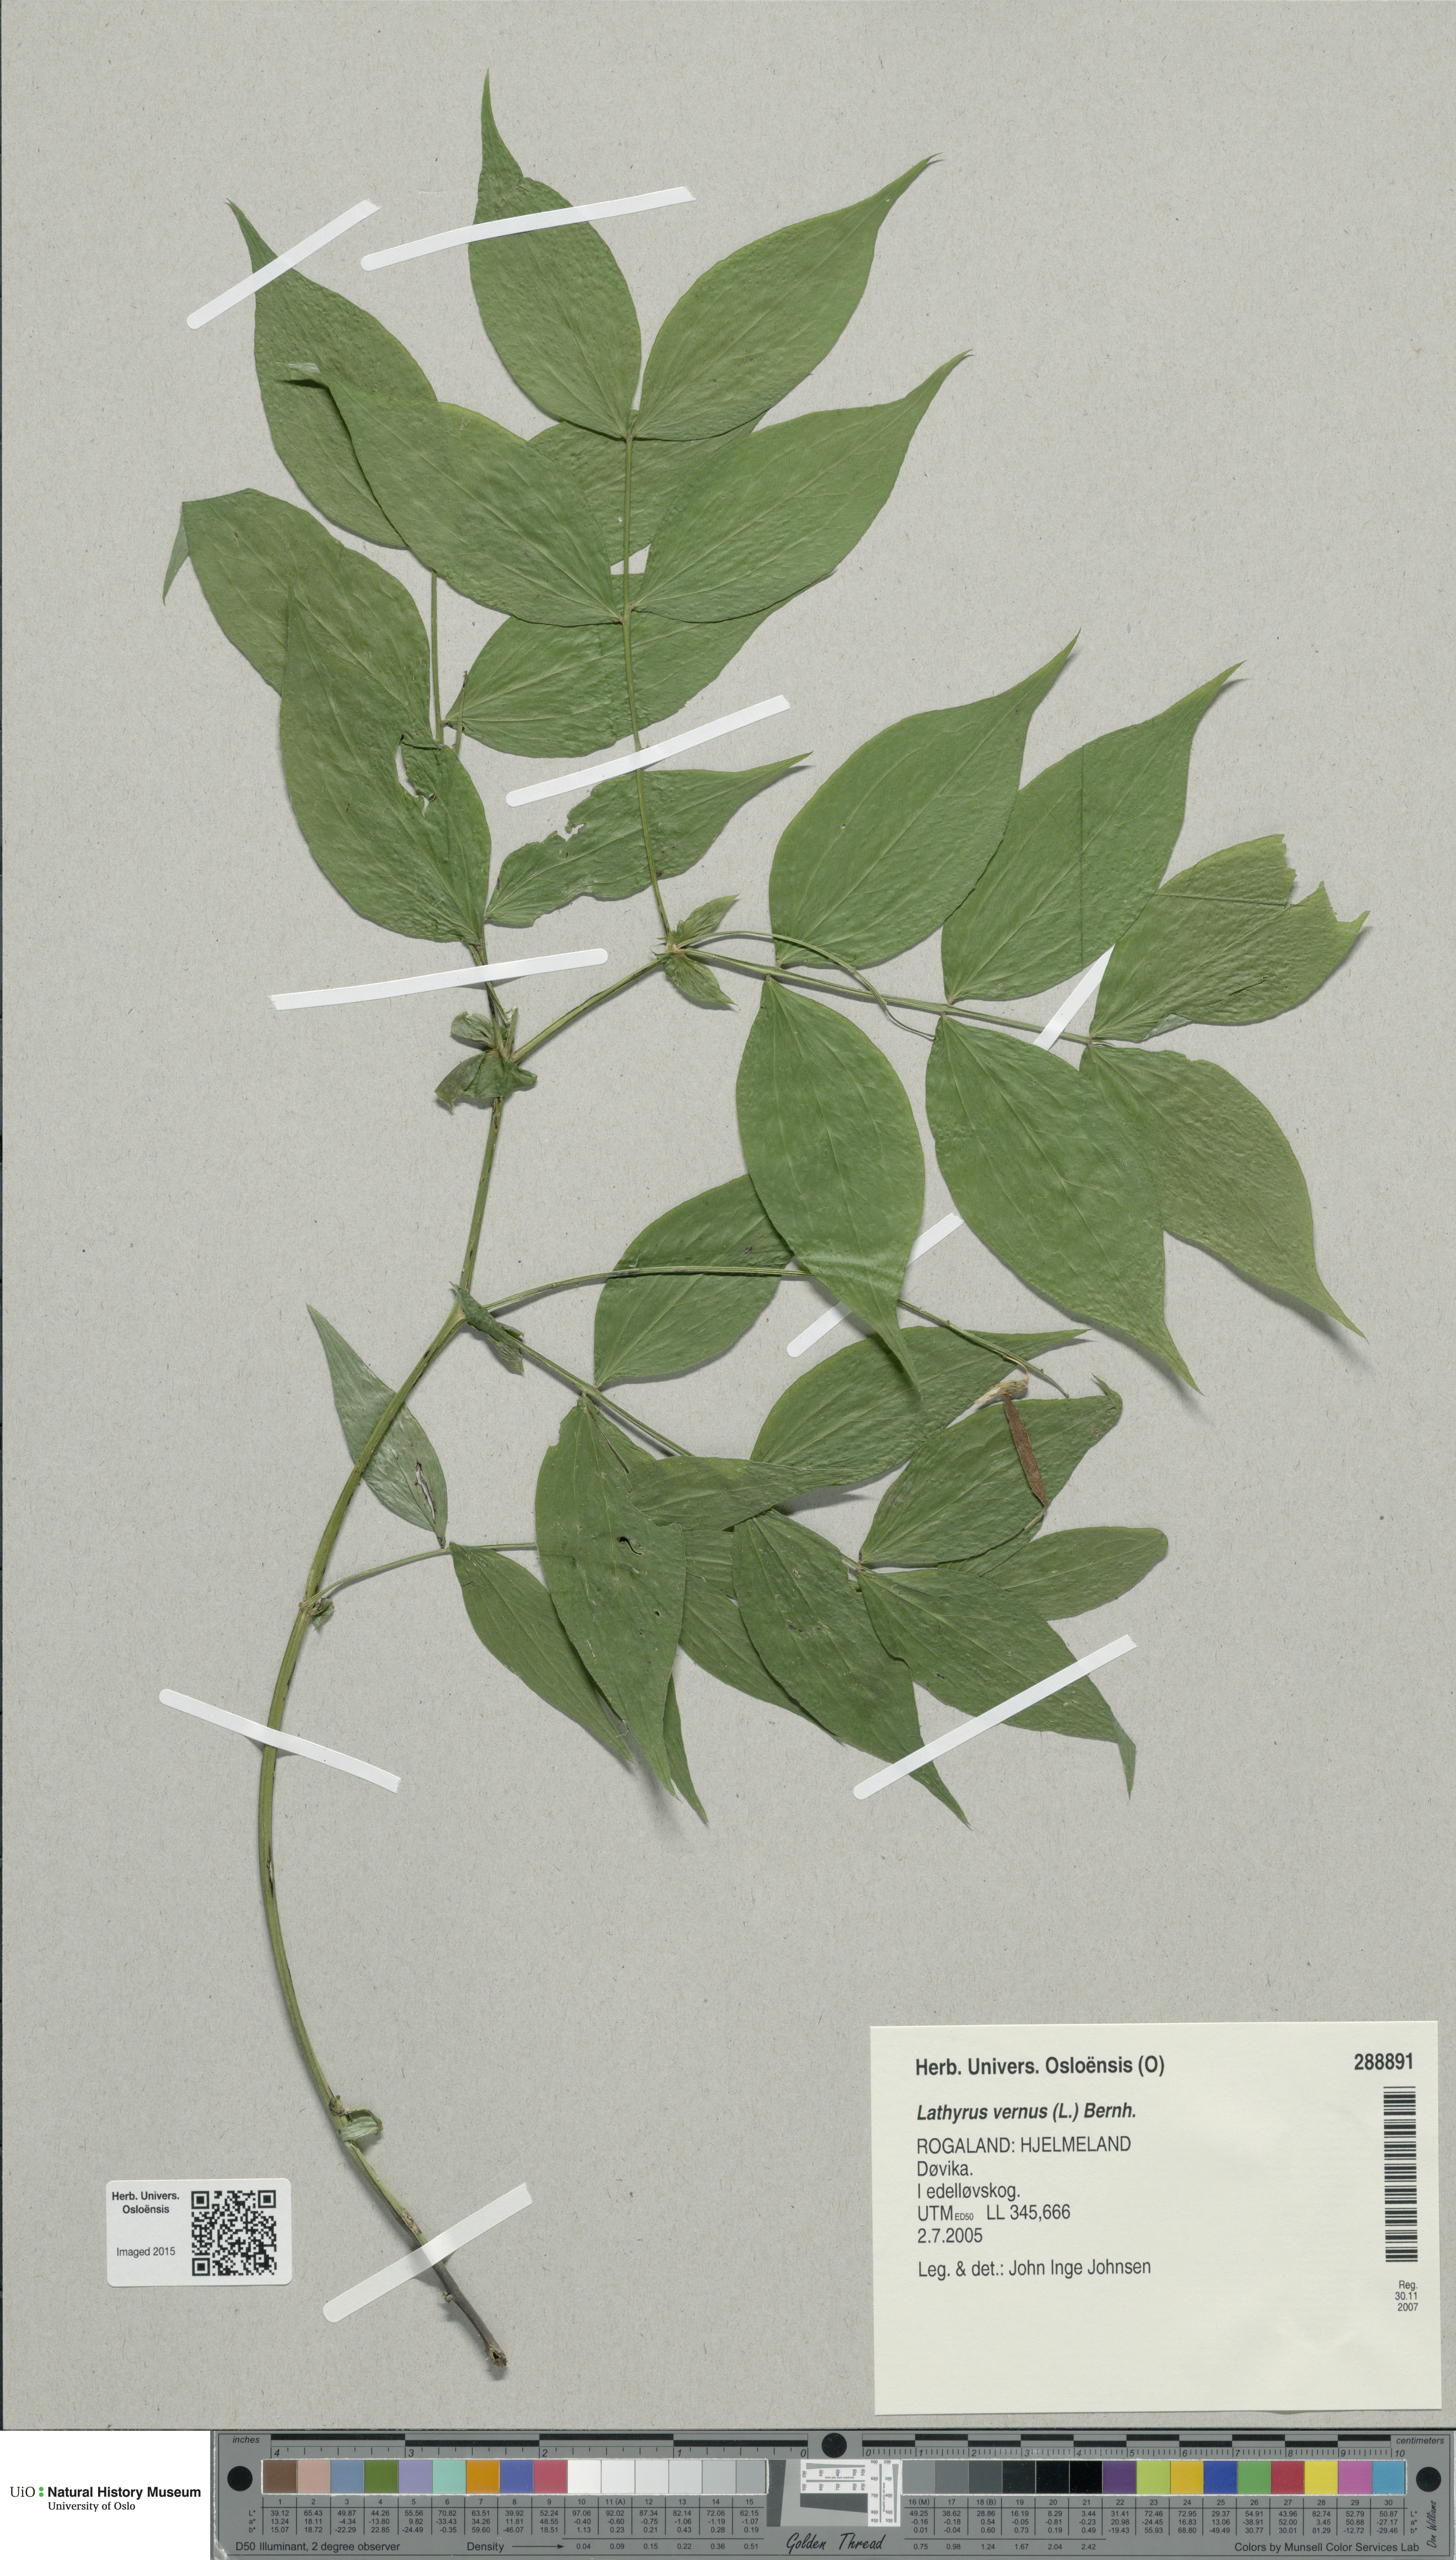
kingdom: Plantae
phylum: Tracheophyta
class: Magnoliopsida
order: Fabales
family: Fabaceae
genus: Lathyrus
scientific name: Lathyrus vernus
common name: Spring pea
